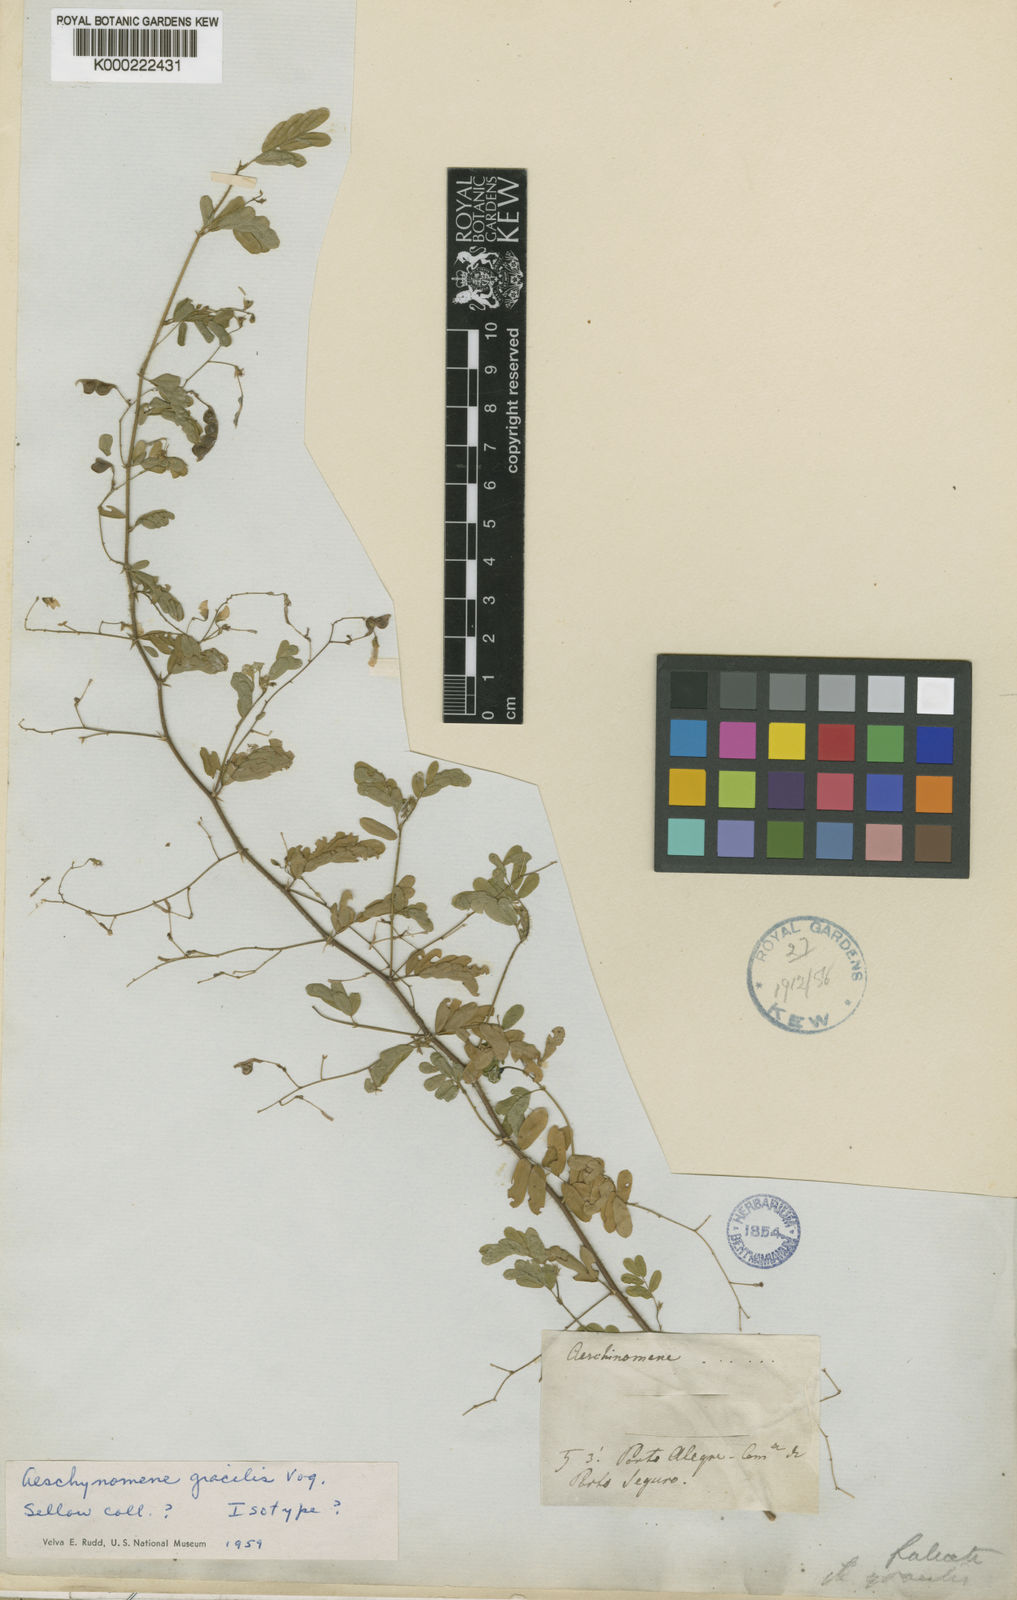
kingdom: Plantae
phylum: Tracheophyta
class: Magnoliopsida
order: Fabales
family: Fabaceae
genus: Ctenodon
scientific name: Ctenodon gracilis
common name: Puerto rico jointvetch
